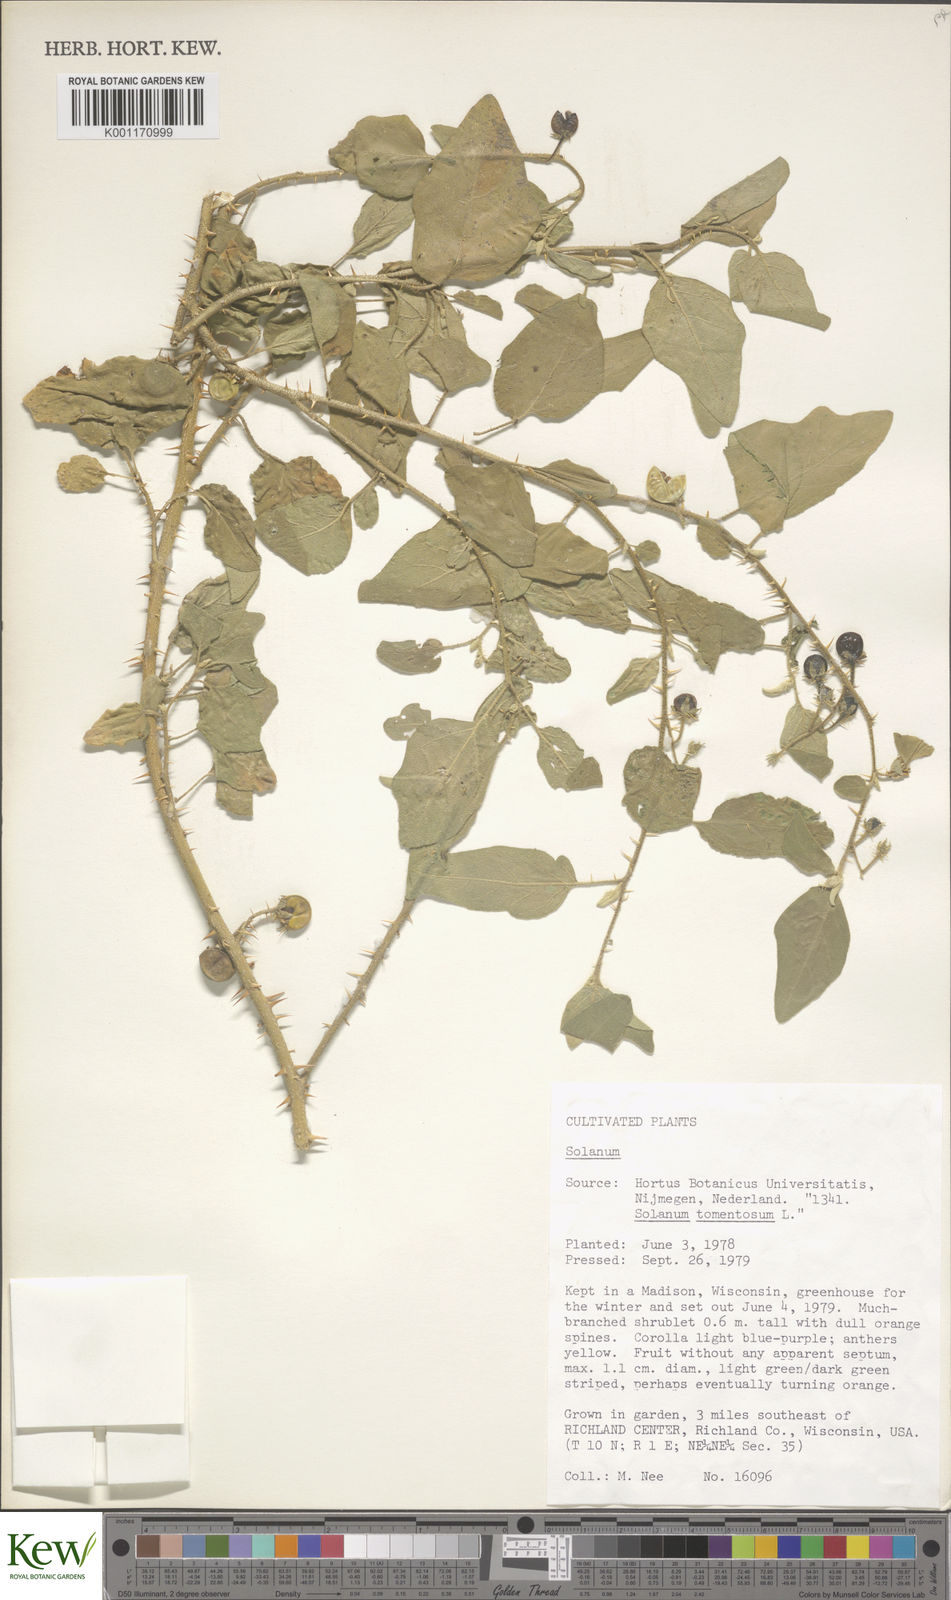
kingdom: Plantae
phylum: Tracheophyta
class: Magnoliopsida
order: Solanales
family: Solanaceae
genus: Solanum
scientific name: Solanum
